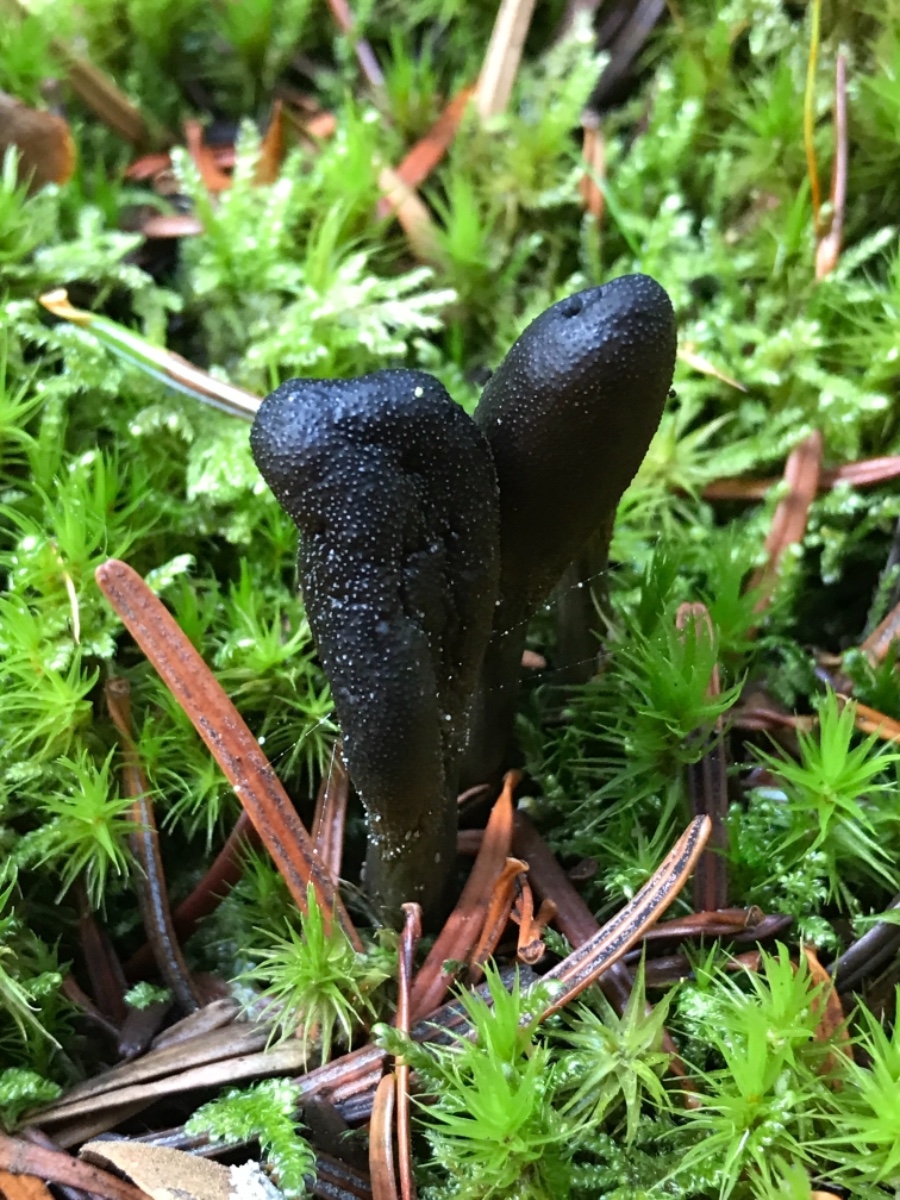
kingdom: Fungi
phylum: Ascomycota
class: Sordariomycetes
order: Hypocreales
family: Ophiocordycipitaceae
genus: Tolypocladium
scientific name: Tolypocladium ophioglossoides
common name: slank snyltekølle
